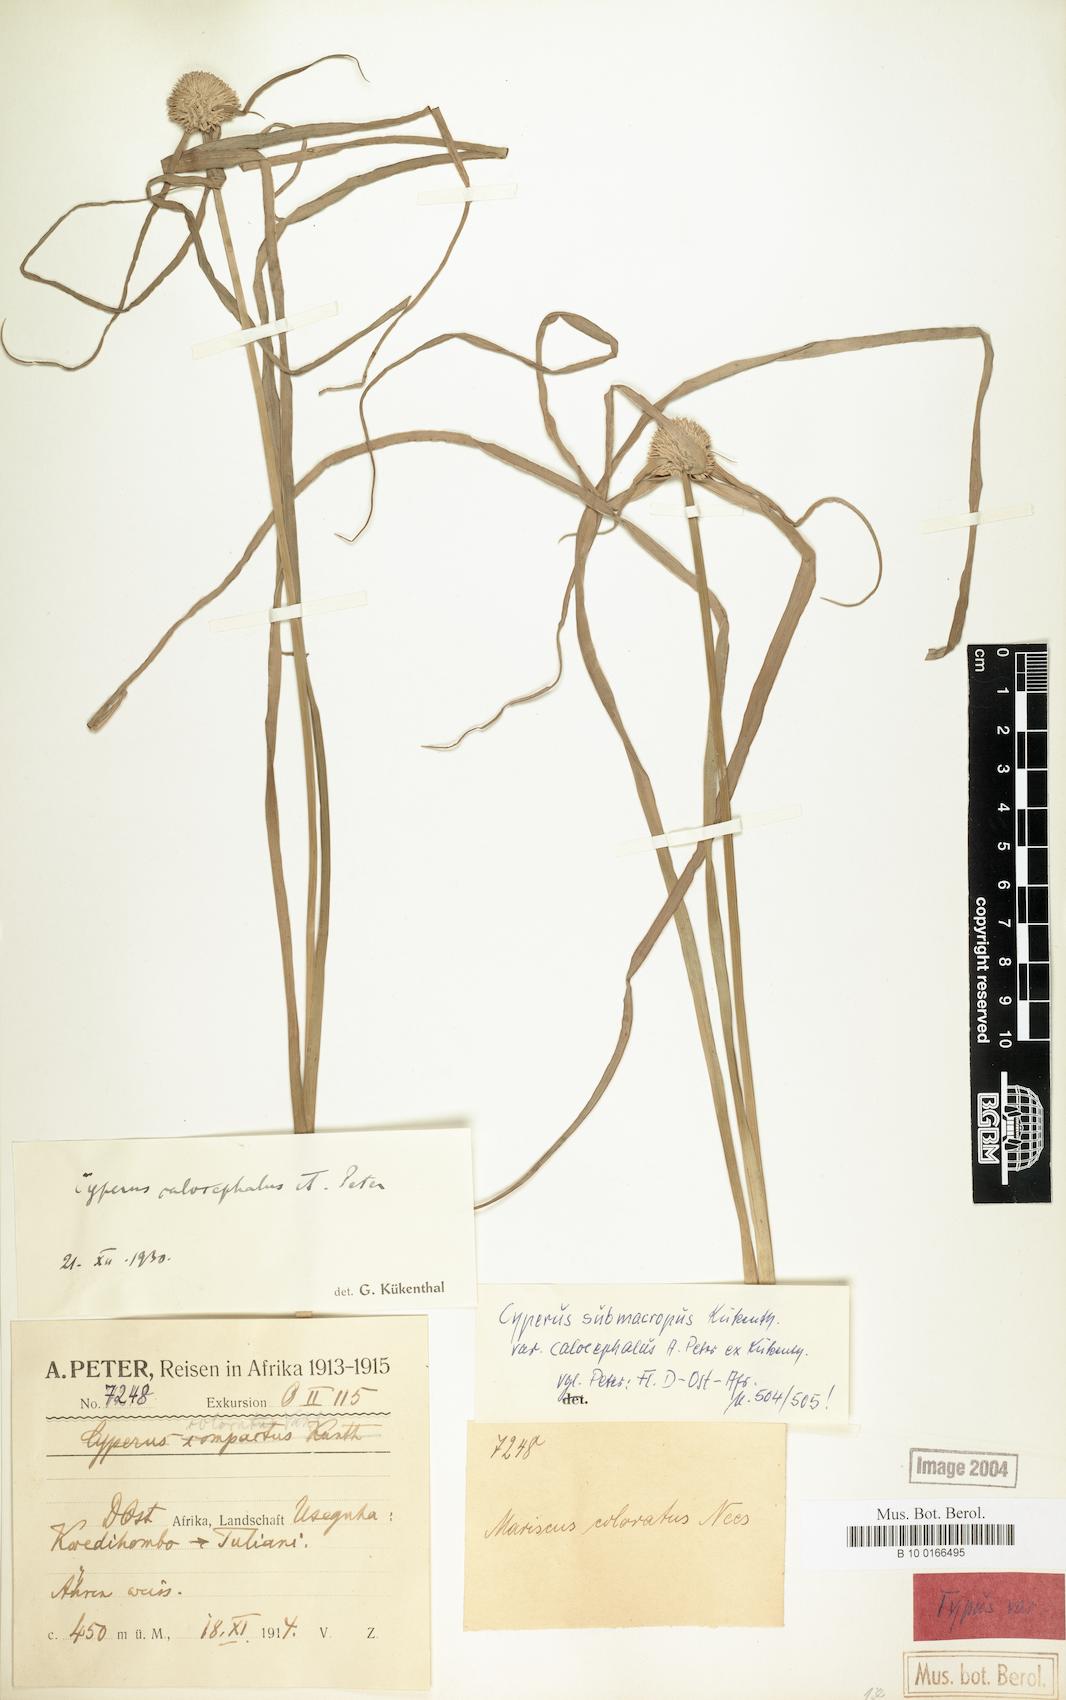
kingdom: Plantae
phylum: Tracheophyta
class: Liliopsida
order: Poales
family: Cyperaceae
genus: Cyperus
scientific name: Cyperus mollipes
